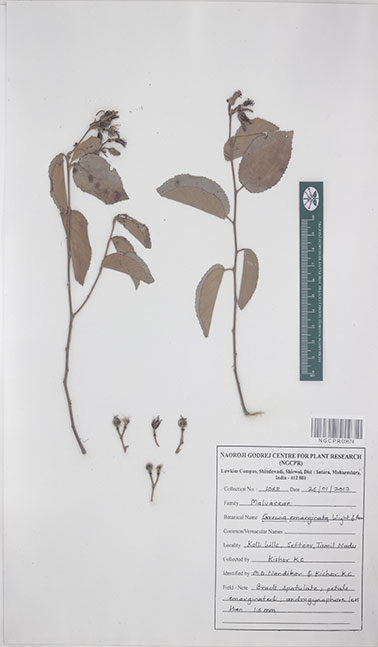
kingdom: Plantae
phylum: Tracheophyta
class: Magnoliopsida
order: Malvales
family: Malvaceae
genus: Grewia
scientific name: Grewia oppositifolia
